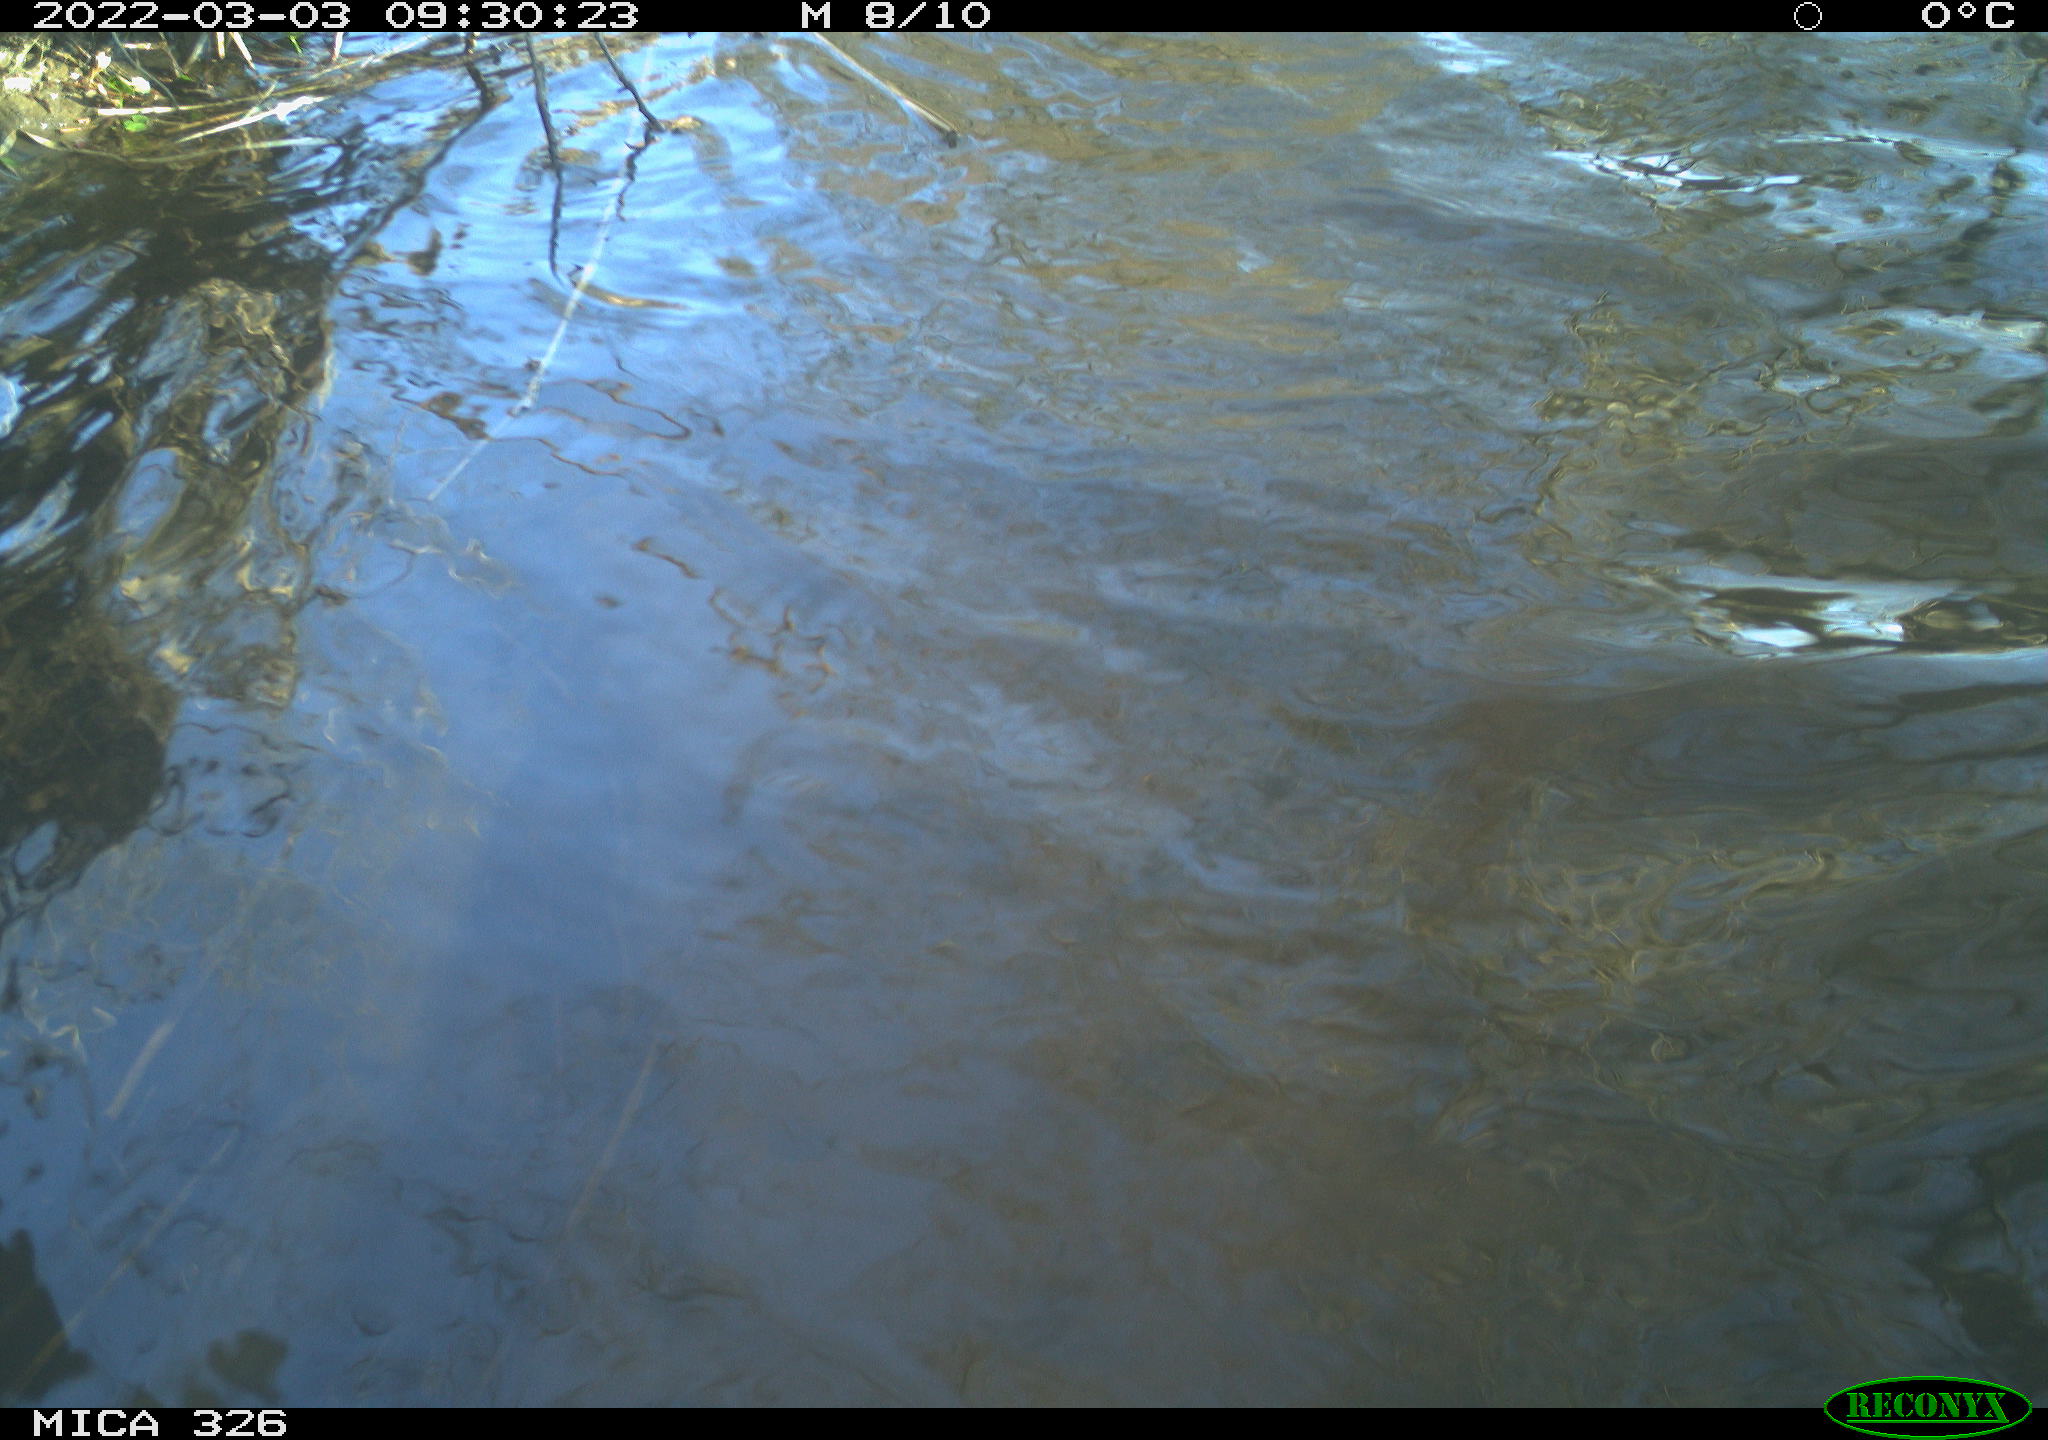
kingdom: Animalia
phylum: Chordata
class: Mammalia
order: Rodentia
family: Cricetidae
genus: Ondatra
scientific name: Ondatra zibethicus
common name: Muskrat
